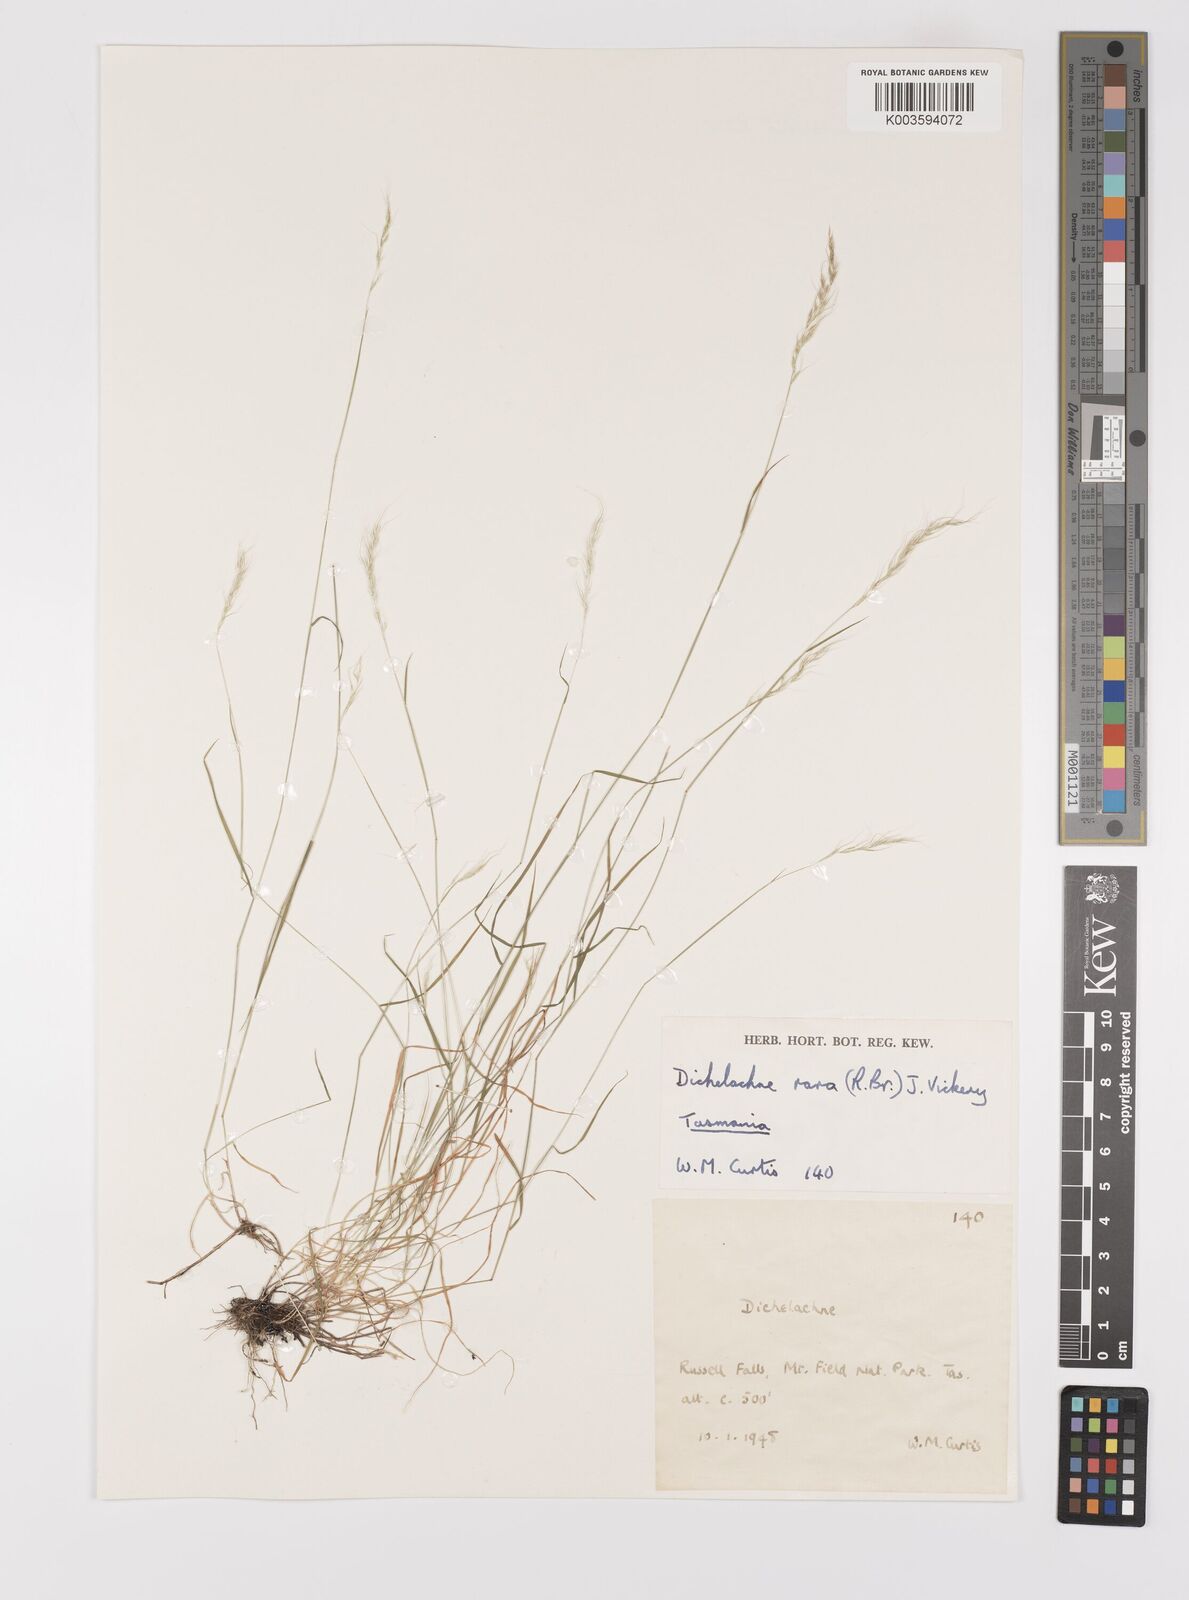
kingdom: Plantae
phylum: Tracheophyta
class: Liliopsida
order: Poales
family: Poaceae
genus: Dichelachne
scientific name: Dichelachne rara
